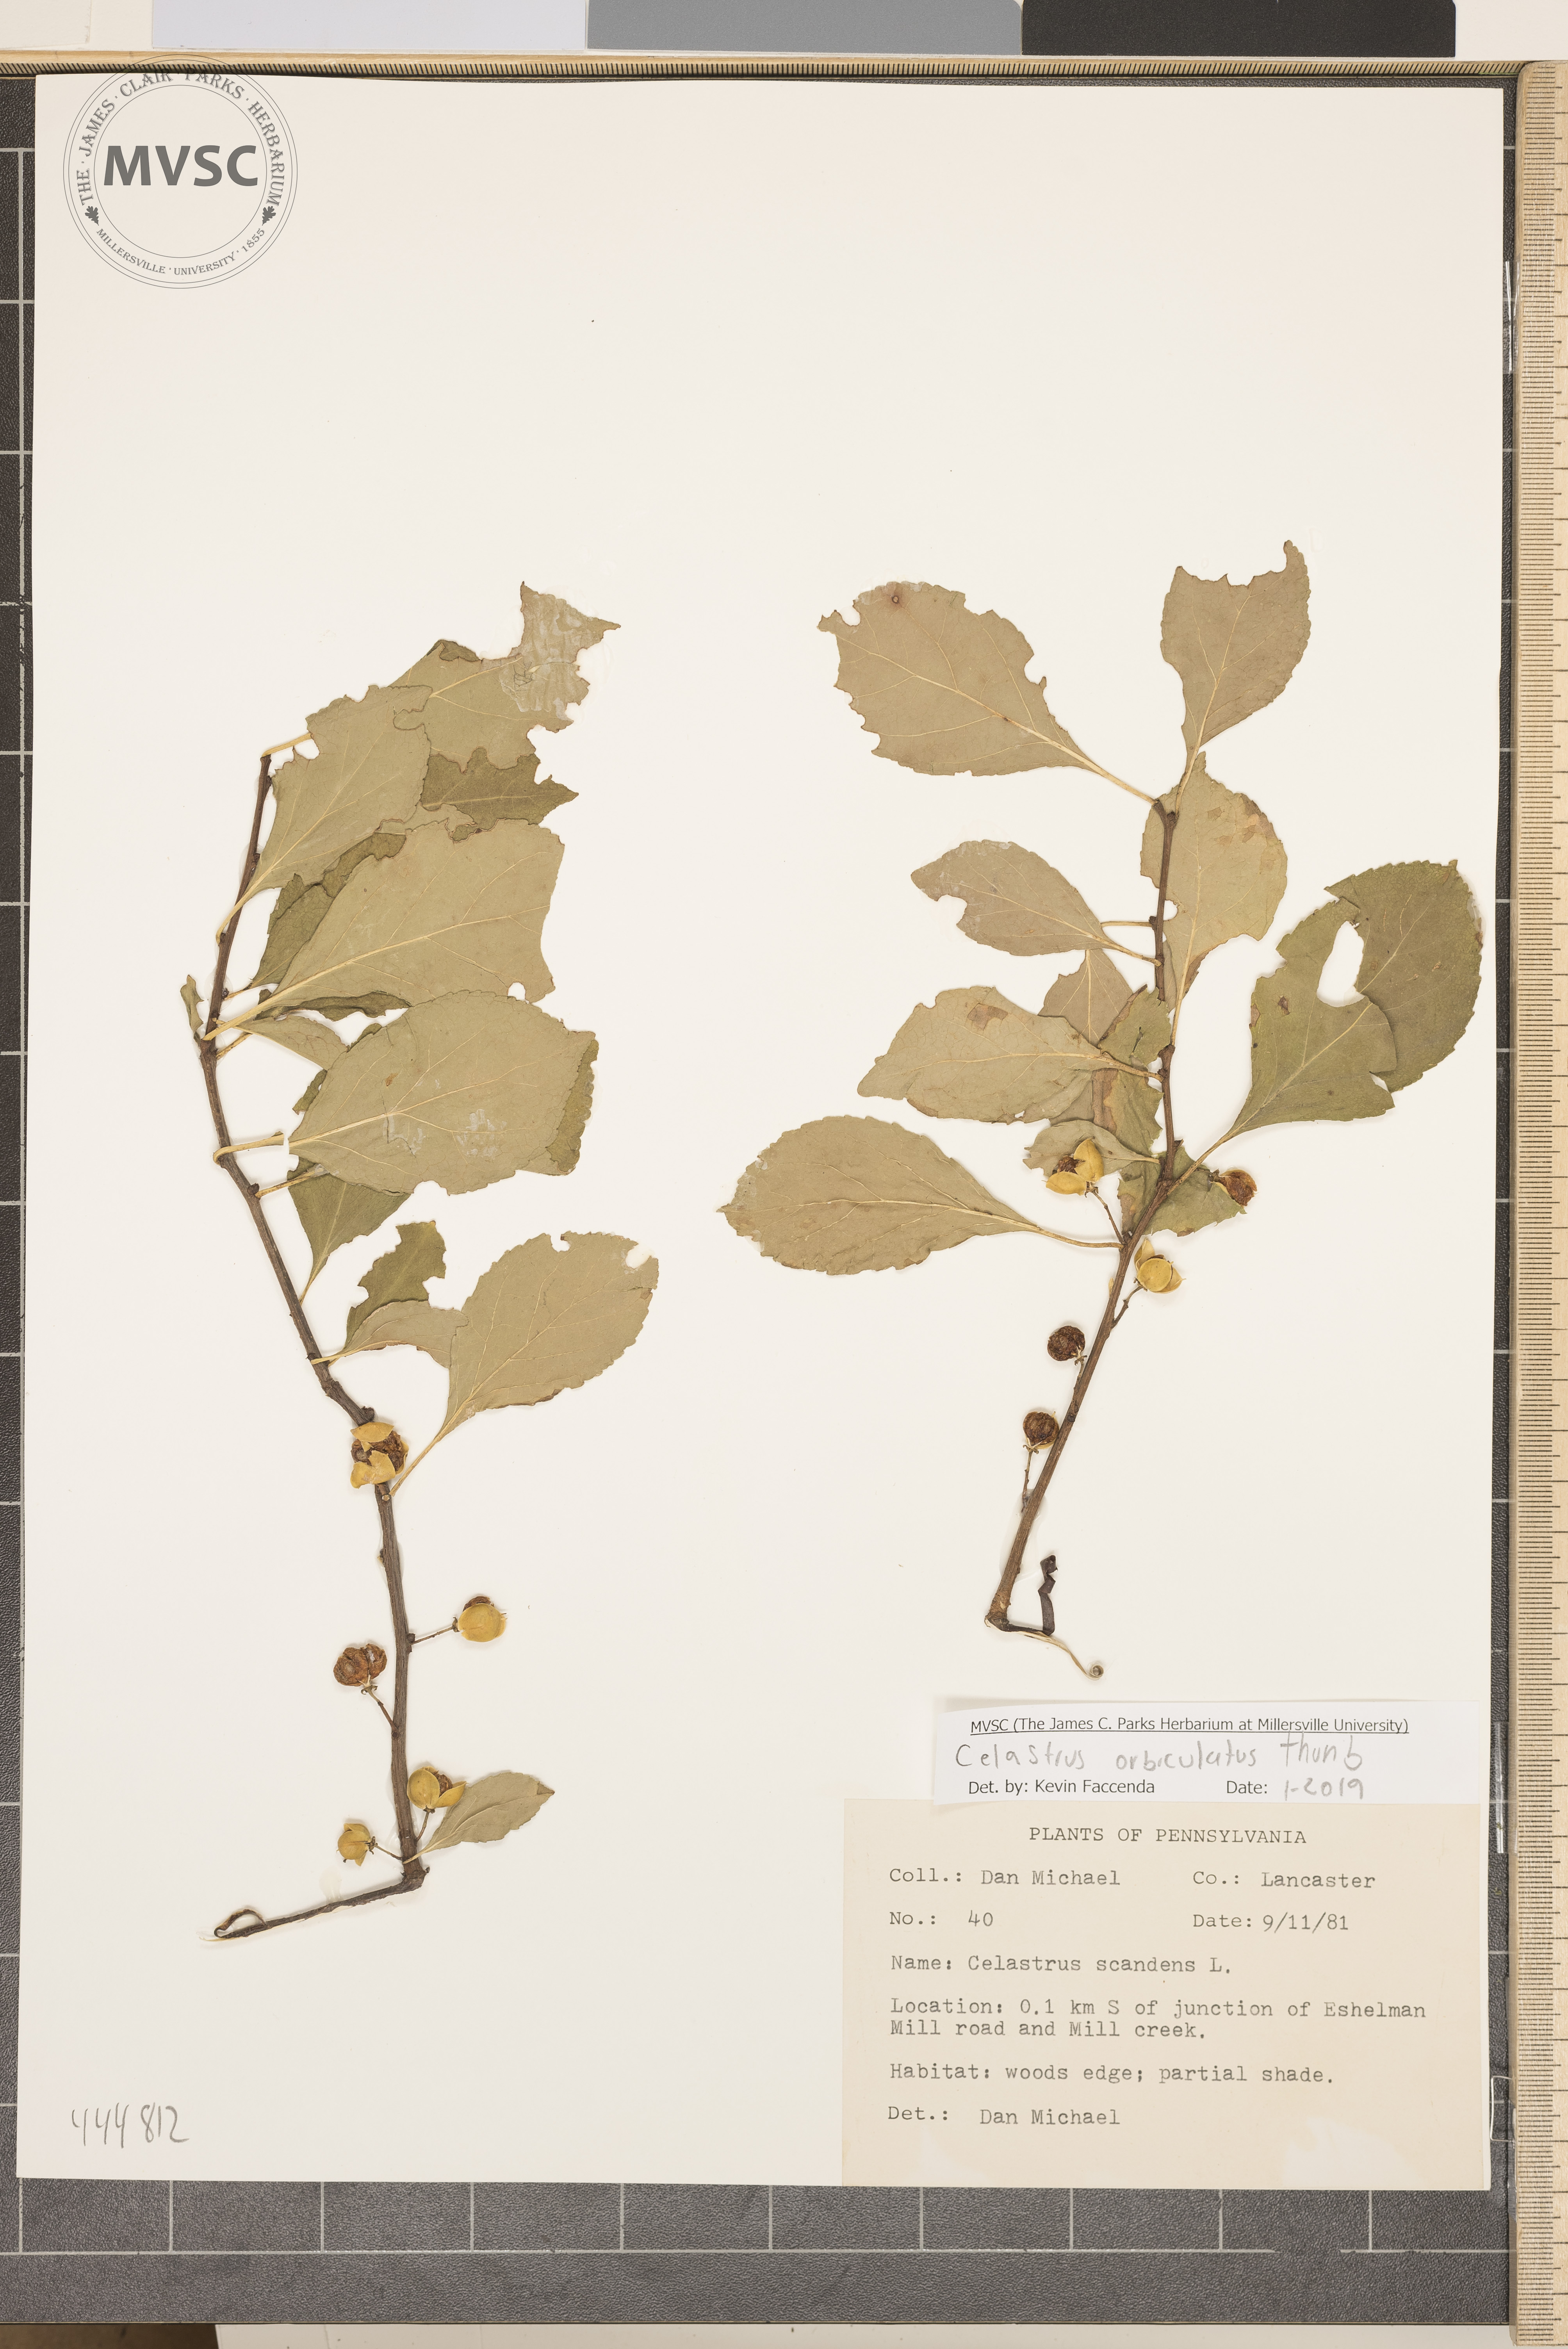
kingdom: Plantae
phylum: Tracheophyta
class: Magnoliopsida
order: Celastrales
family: Celastraceae
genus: Celastrus
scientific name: Celastrus orbiculatus
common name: Oriental bittersweet
